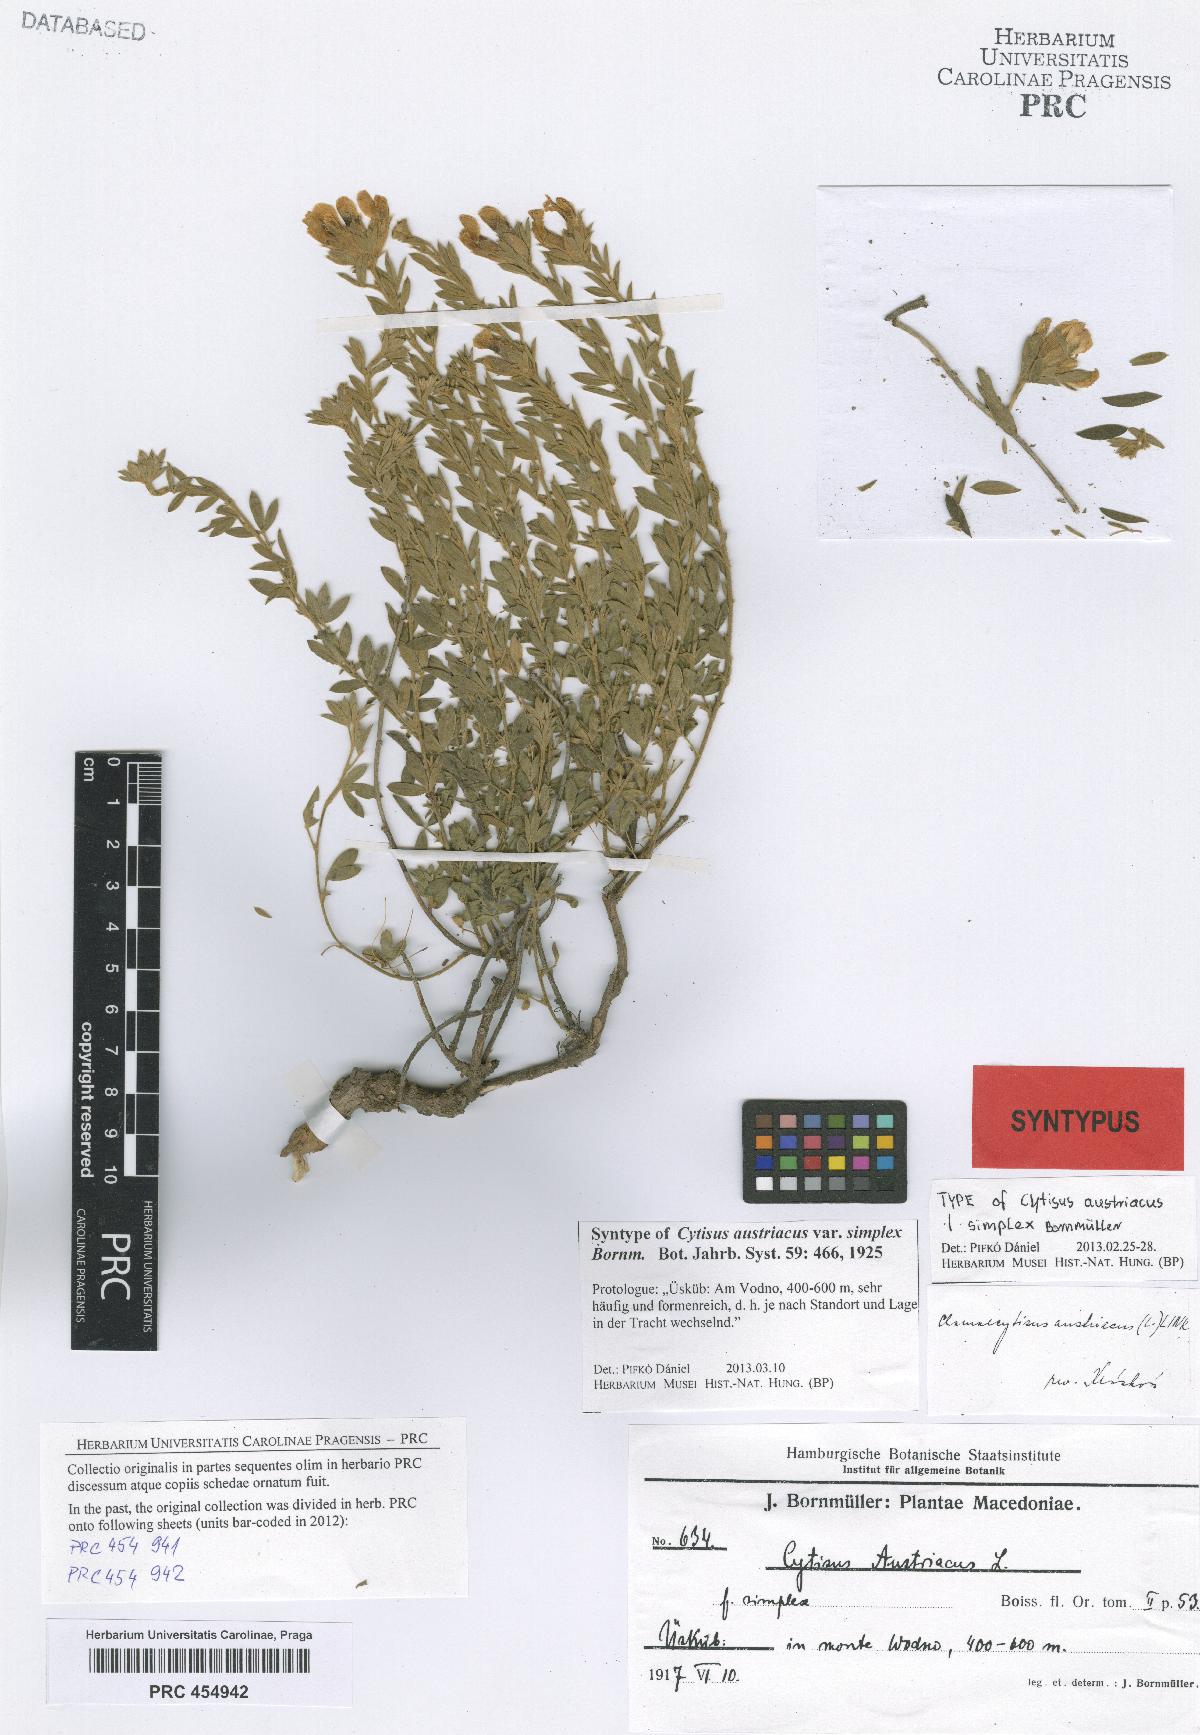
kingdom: Plantae
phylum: Tracheophyta
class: Magnoliopsida
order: Fabales
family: Fabaceae
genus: Chamaecytisus
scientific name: Chamaecytisus austriacus
